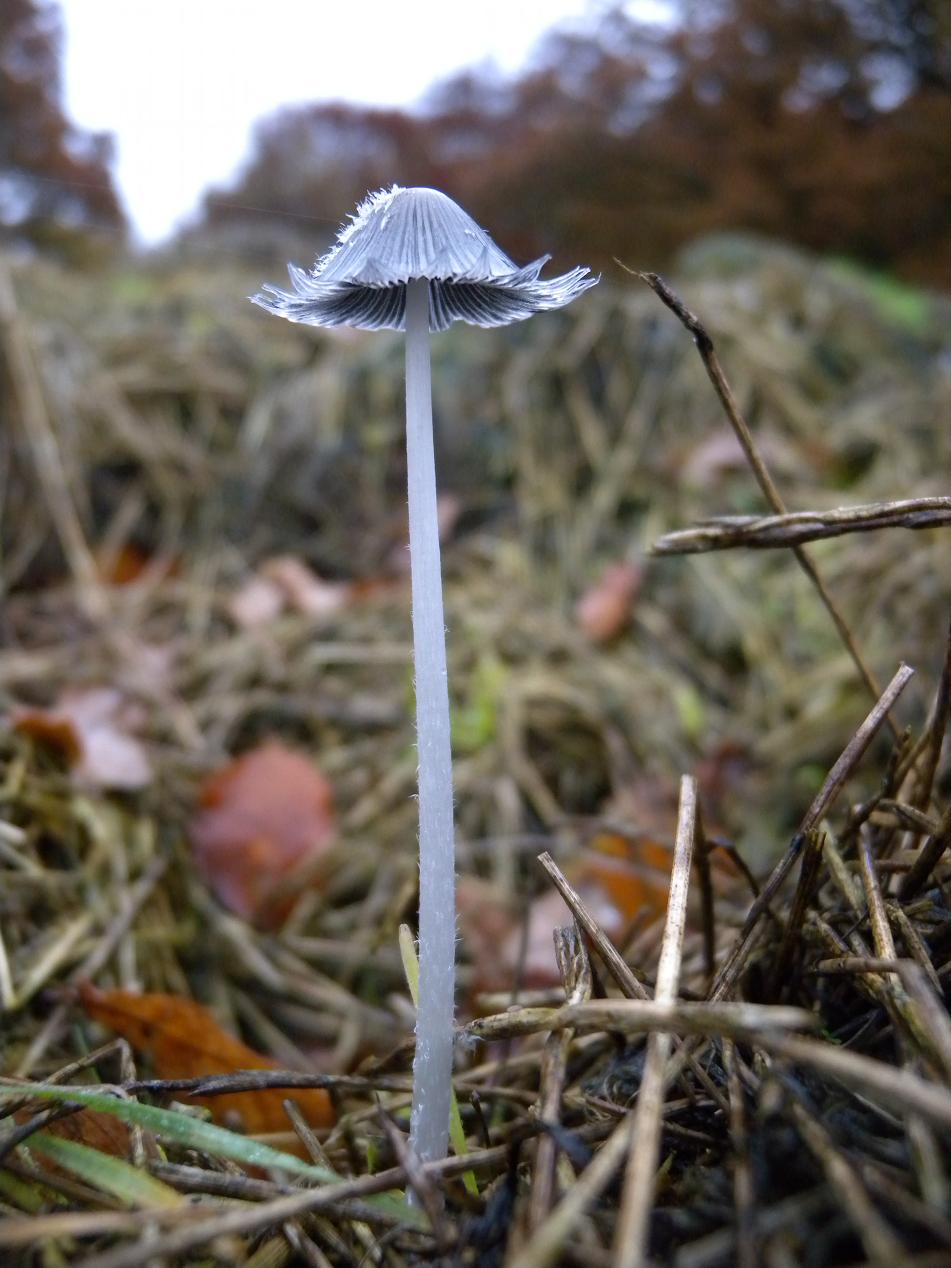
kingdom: Fungi
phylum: Basidiomycota
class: Agaricomycetes
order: Agaricales
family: Psathyrellaceae
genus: Coprinopsis
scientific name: Coprinopsis lagopus
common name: dunstokket blækhat
